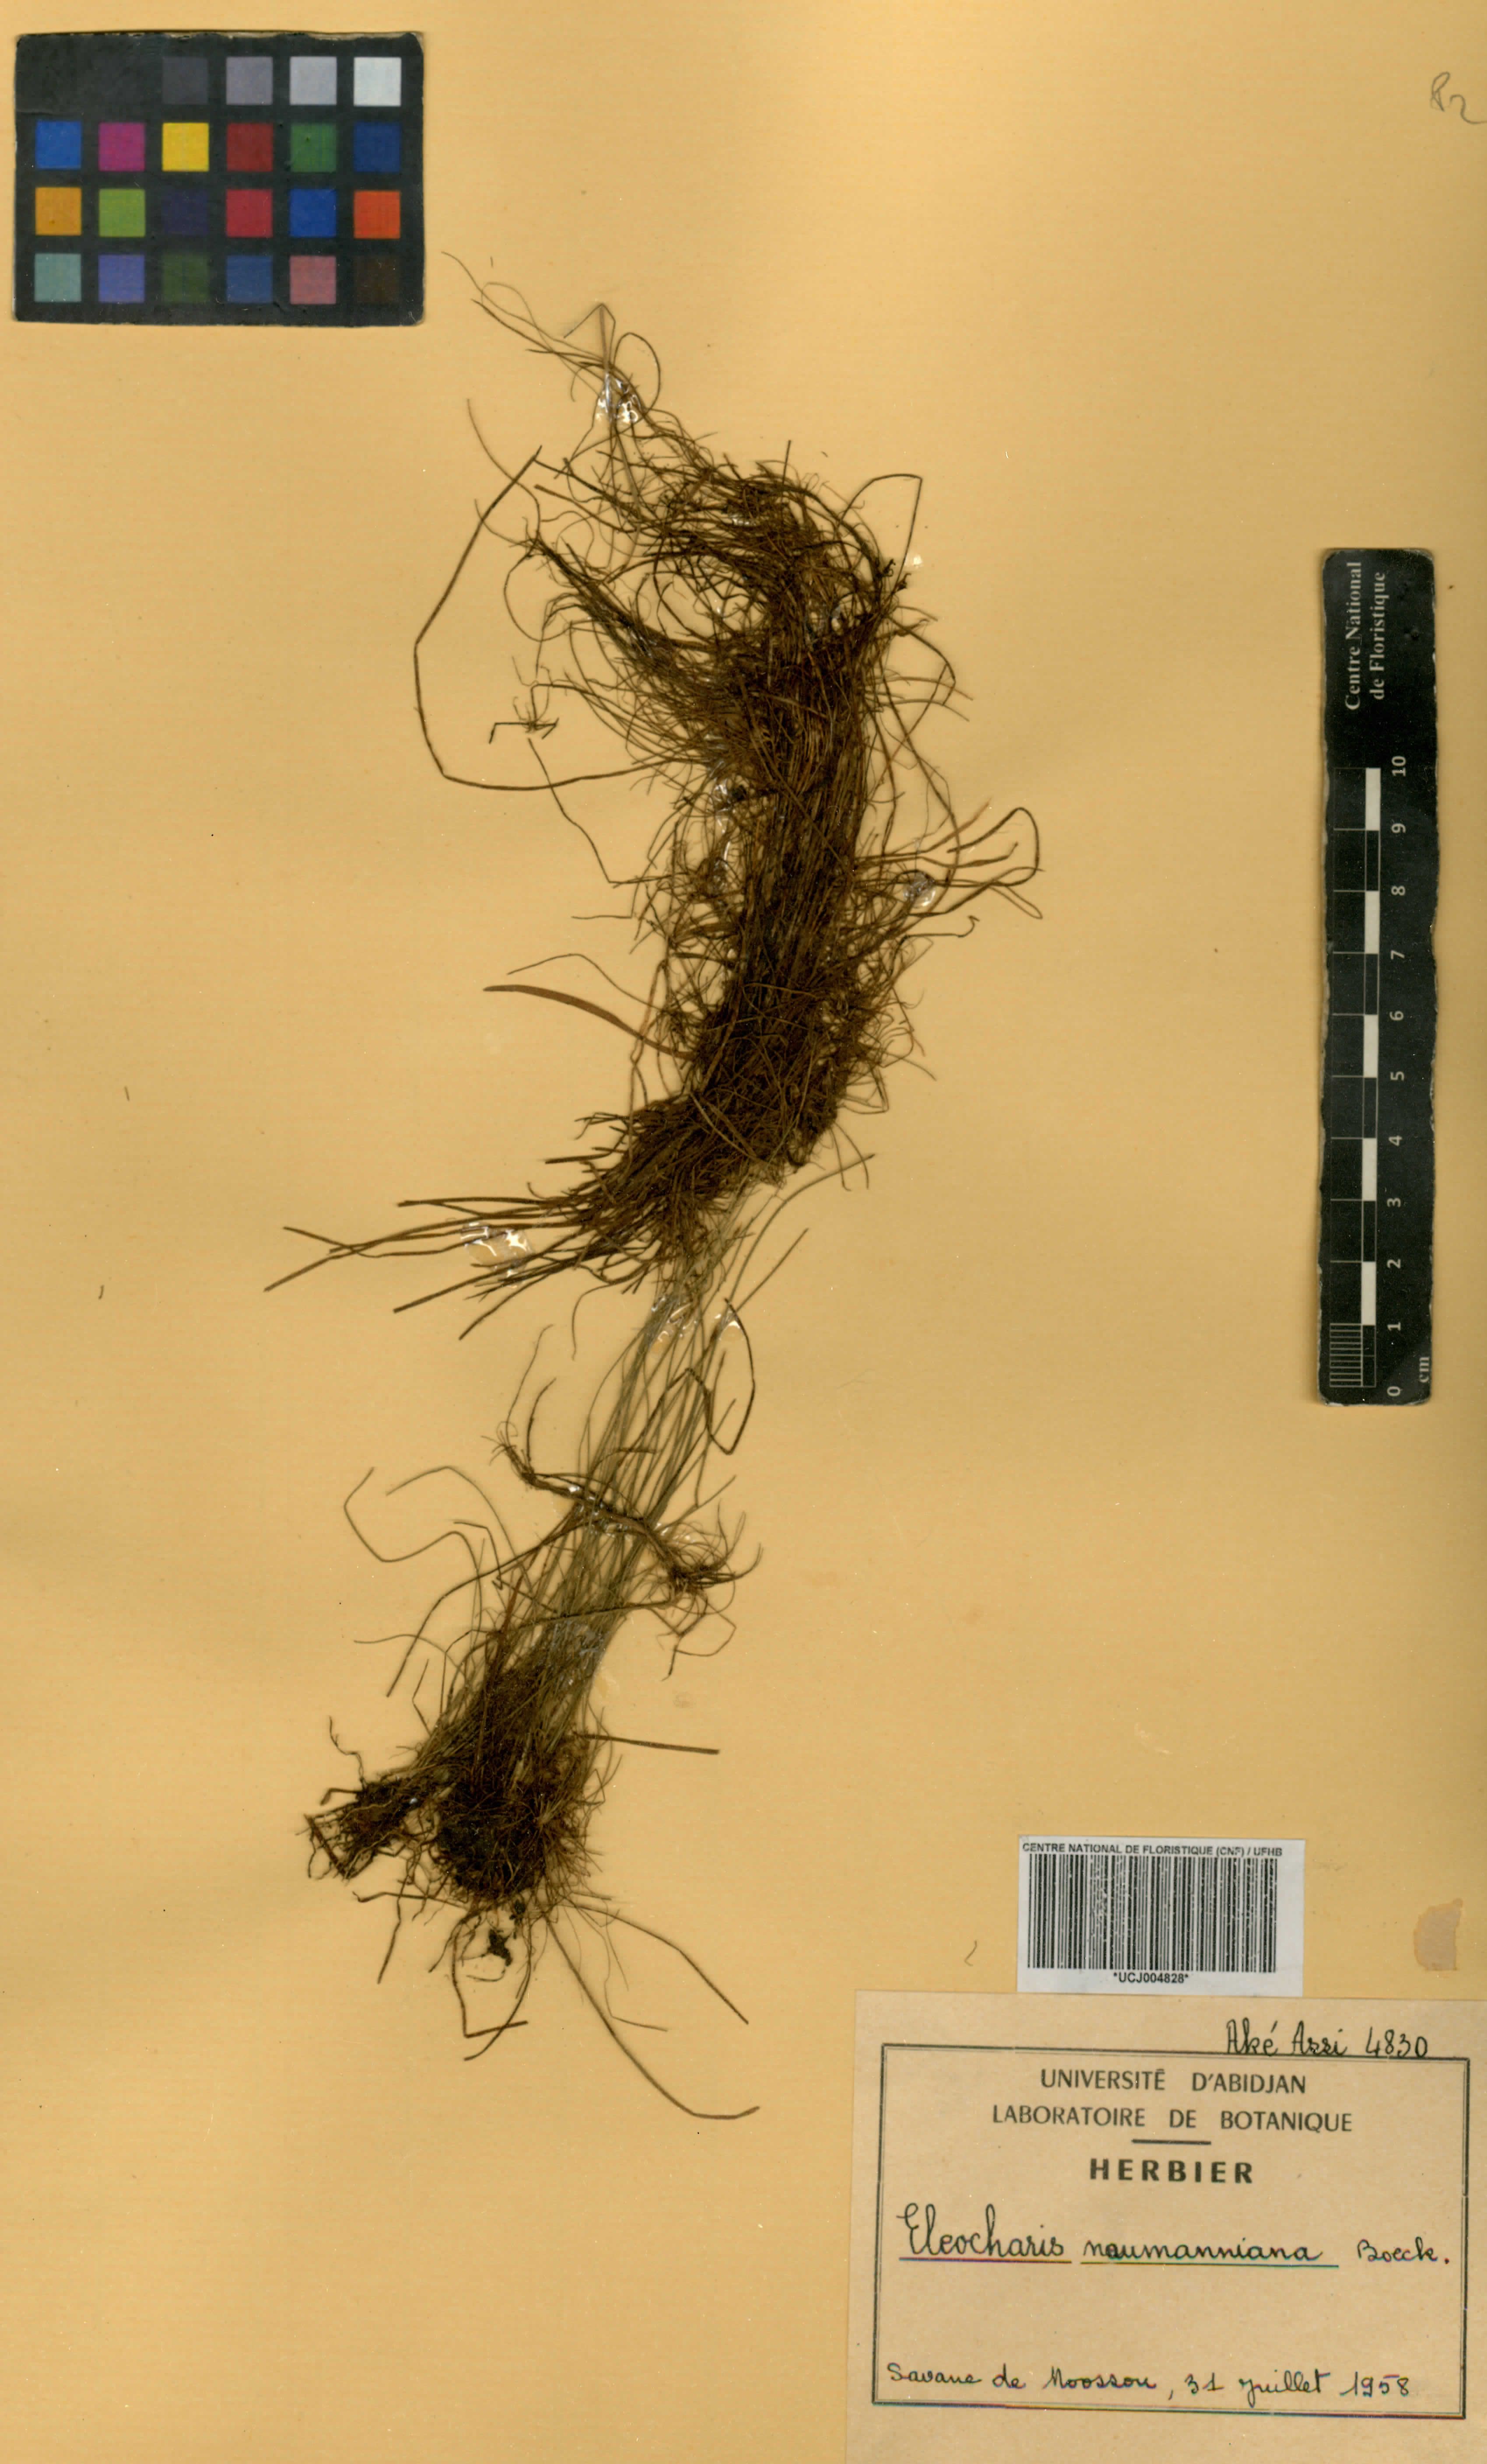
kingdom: Plantae
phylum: Tracheophyta
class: Liliopsida
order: Poales
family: Cyperaceae
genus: Eleocharis
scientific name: Eleocharis naumanniana
